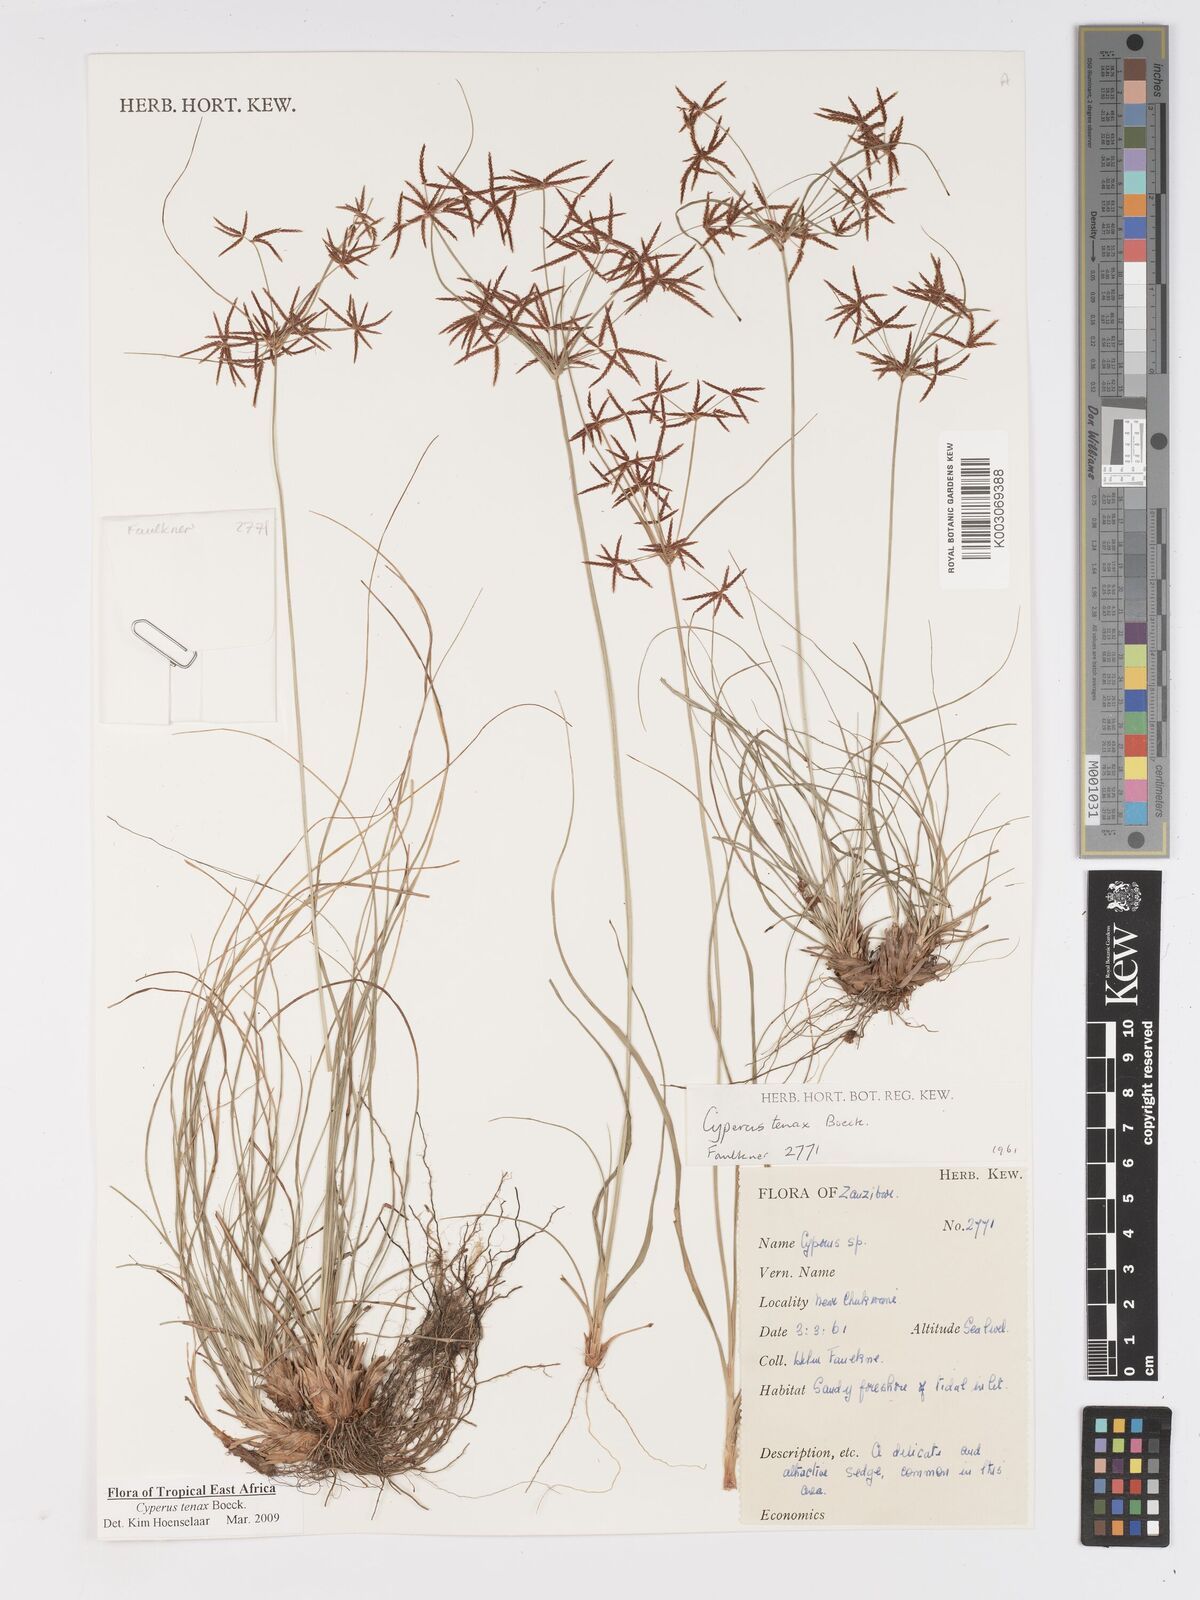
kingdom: Plantae
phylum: Tracheophyta
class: Liliopsida
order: Poales
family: Cyperaceae
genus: Cyperus
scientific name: Cyperus tenax
